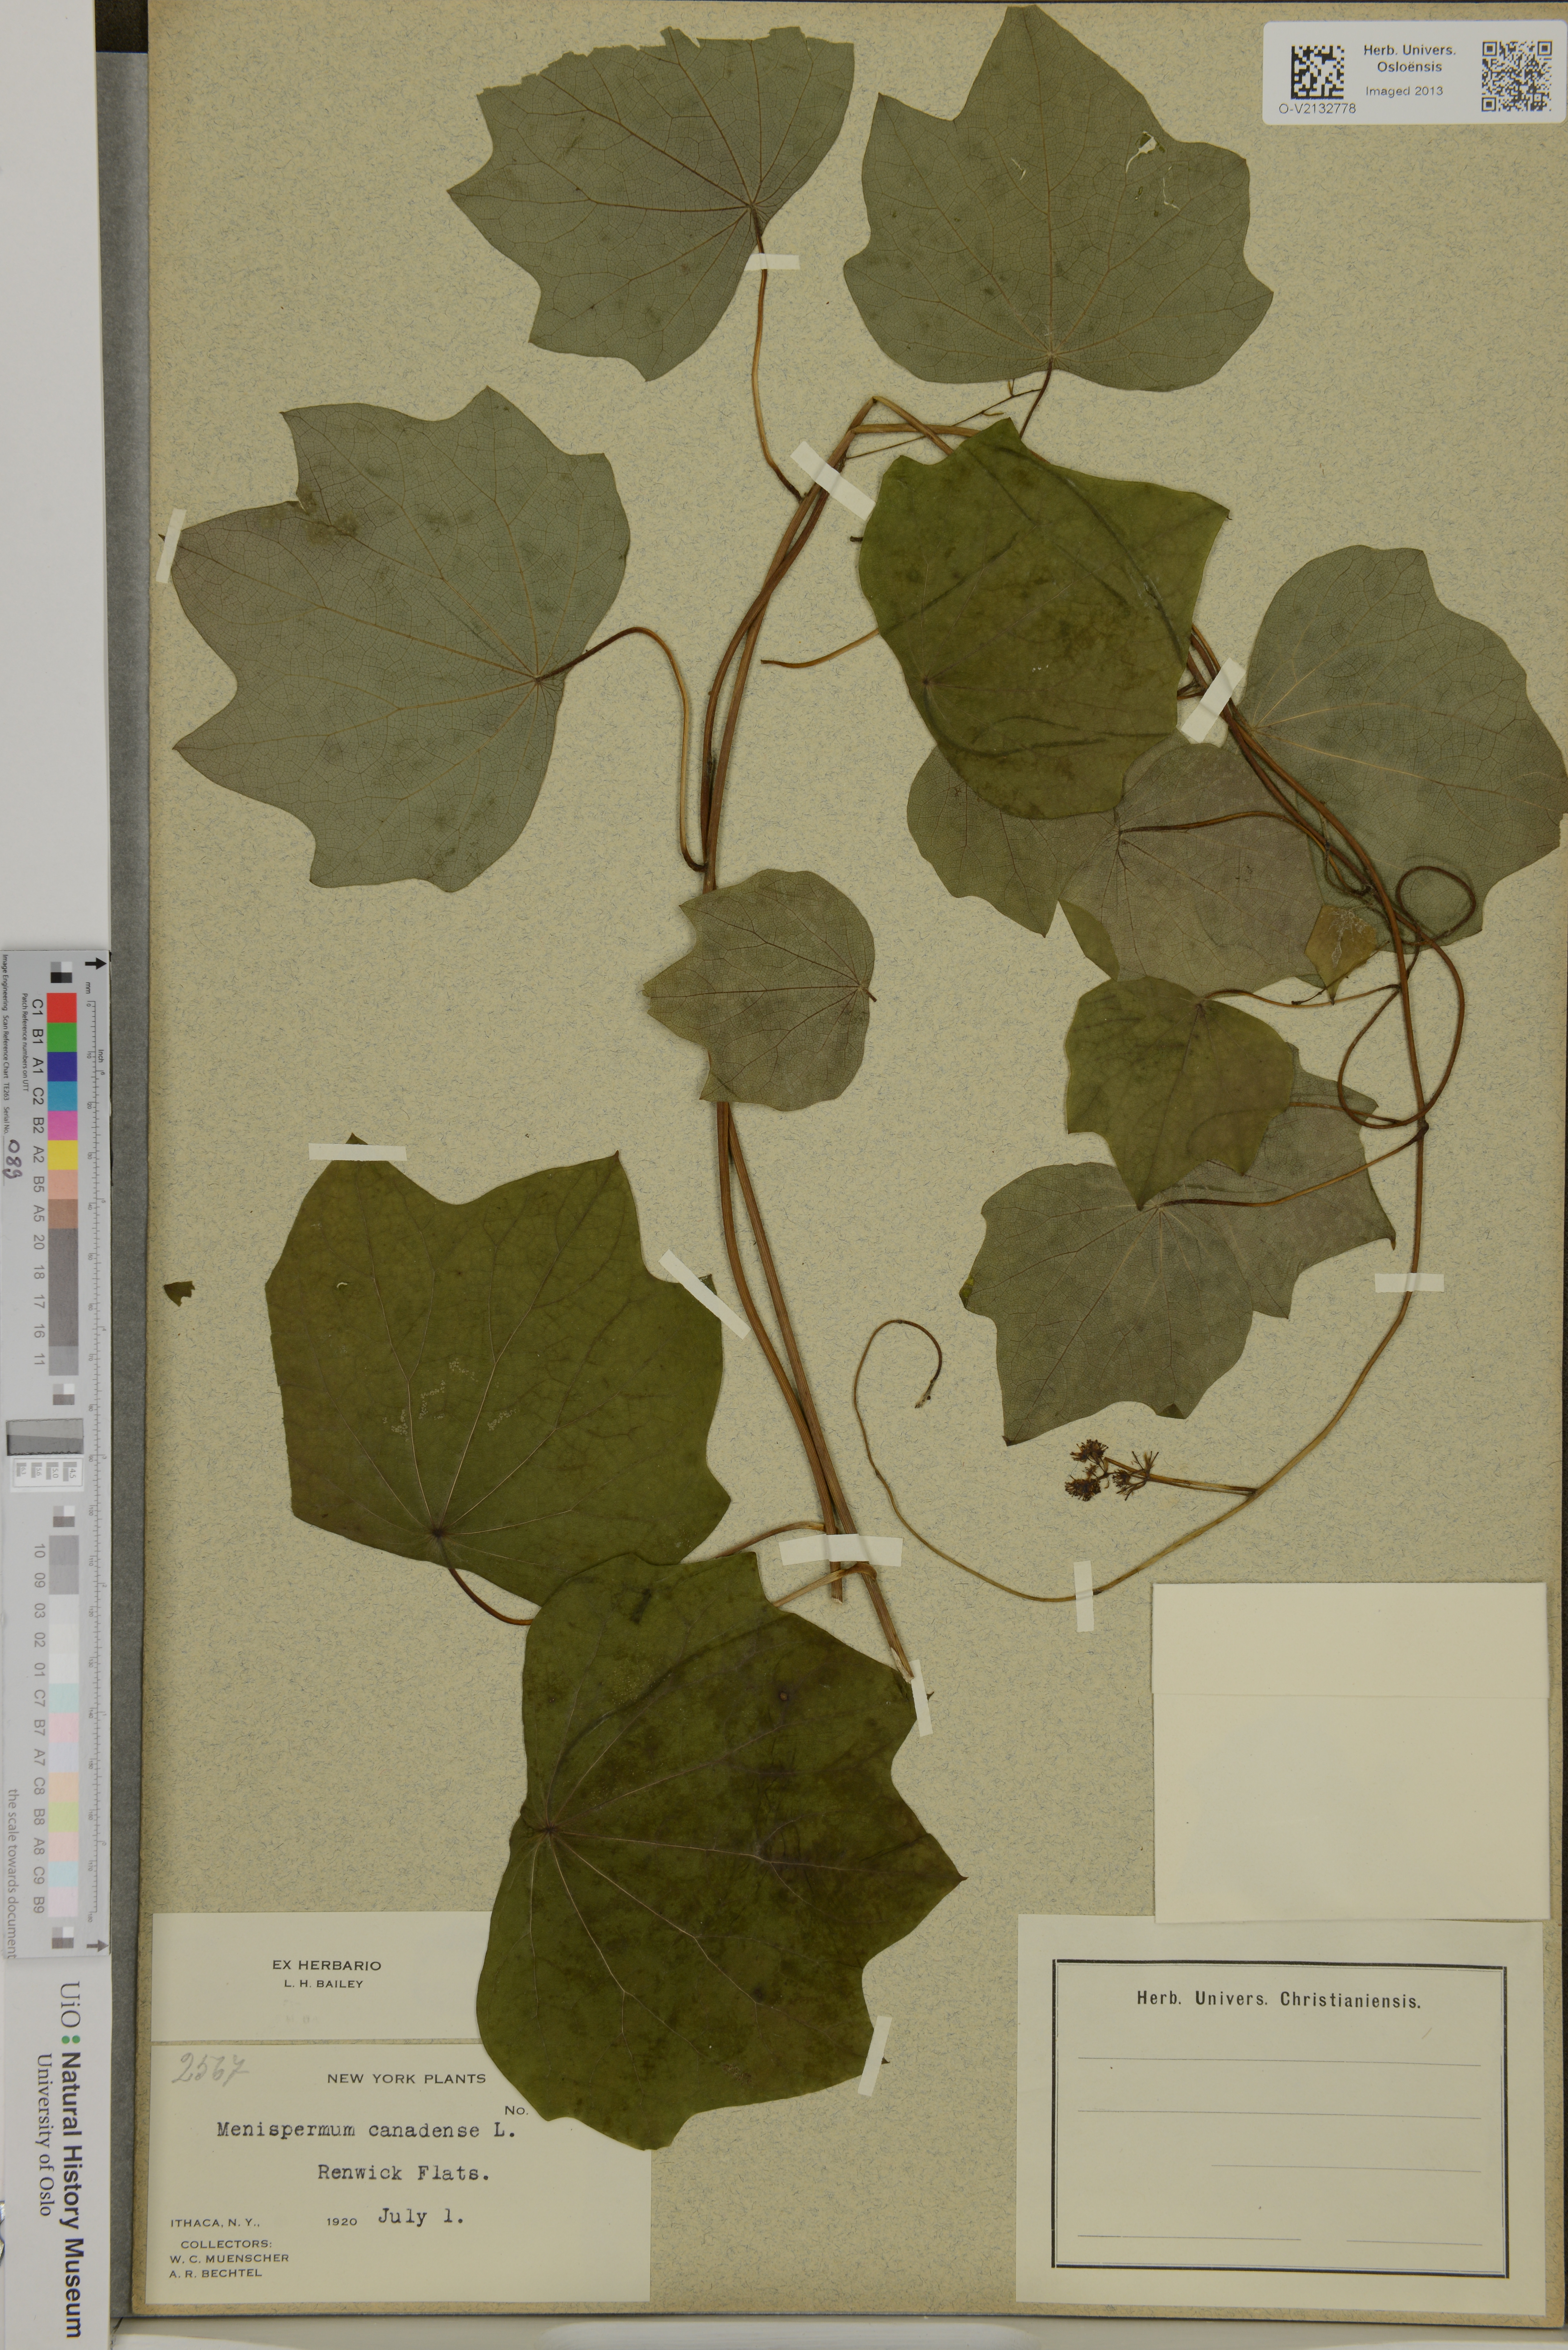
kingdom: Plantae
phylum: Tracheophyta
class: Magnoliopsida
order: Ranunculales
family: Menispermaceae
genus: Menispermum
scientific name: Menispermum canadense
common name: Moonseed
